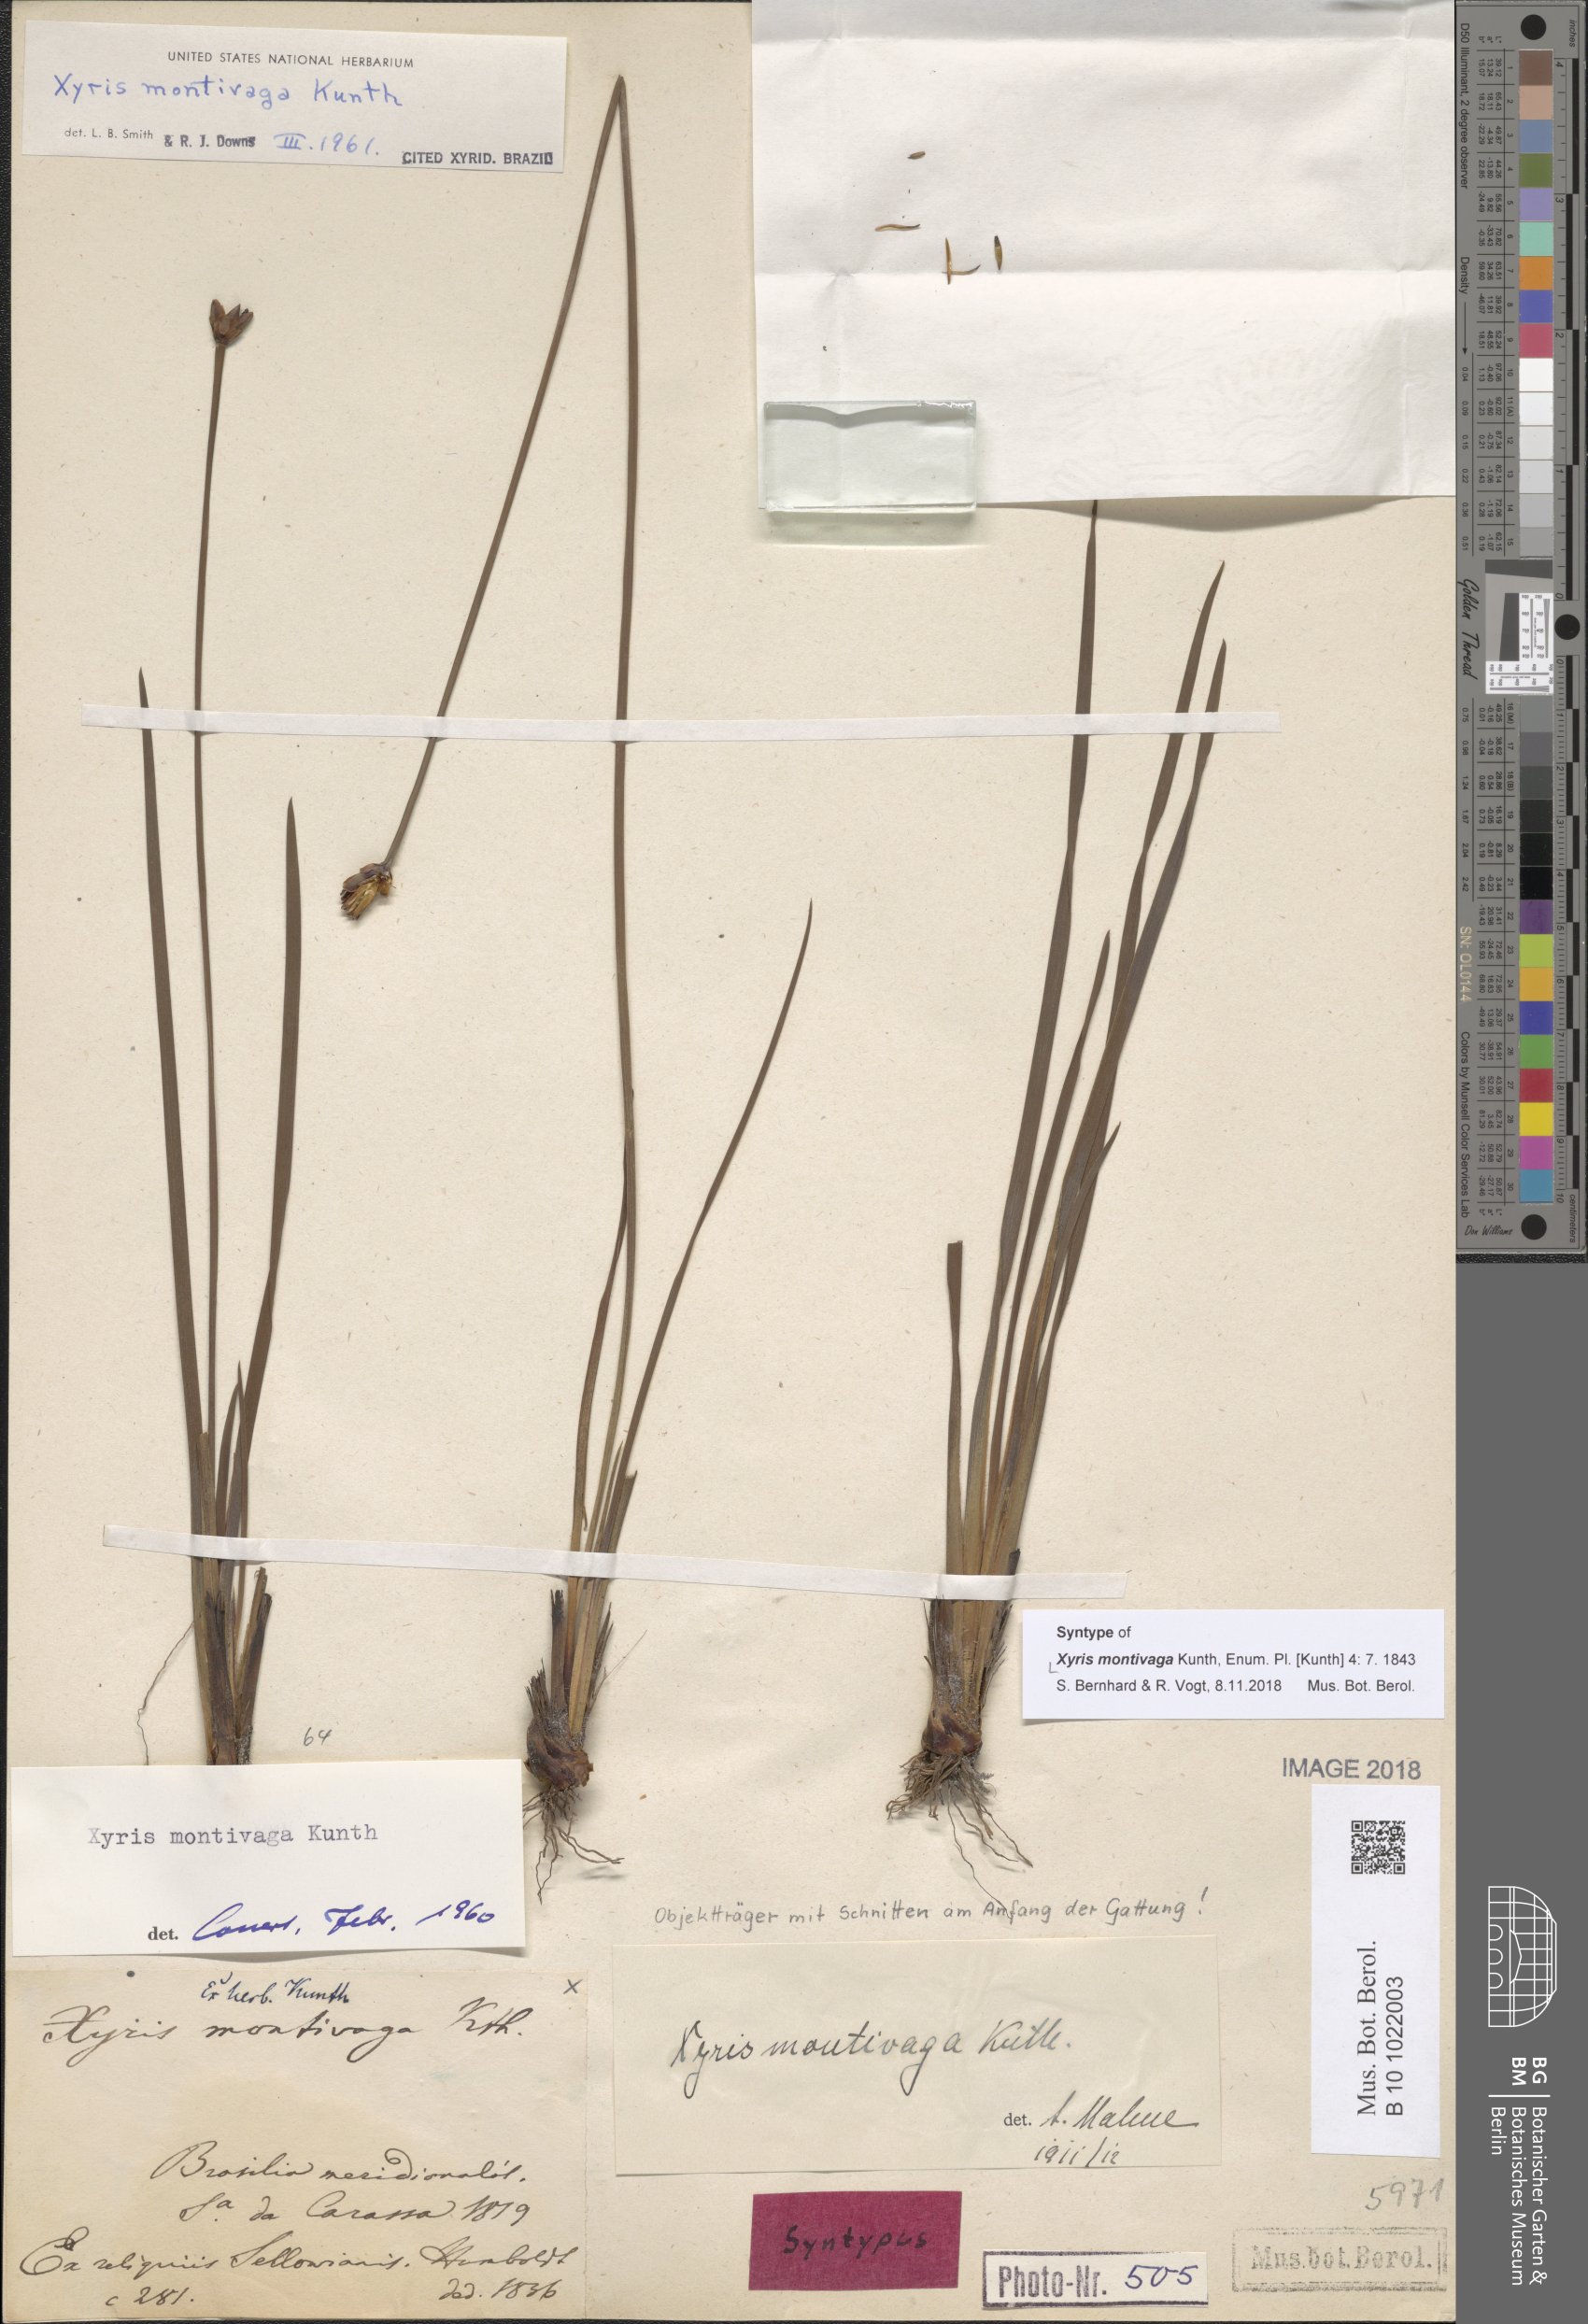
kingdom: Plantae
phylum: Tracheophyta
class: Liliopsida
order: Poales
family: Xyridaceae
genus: Xyris
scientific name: Xyris trachyphylla
